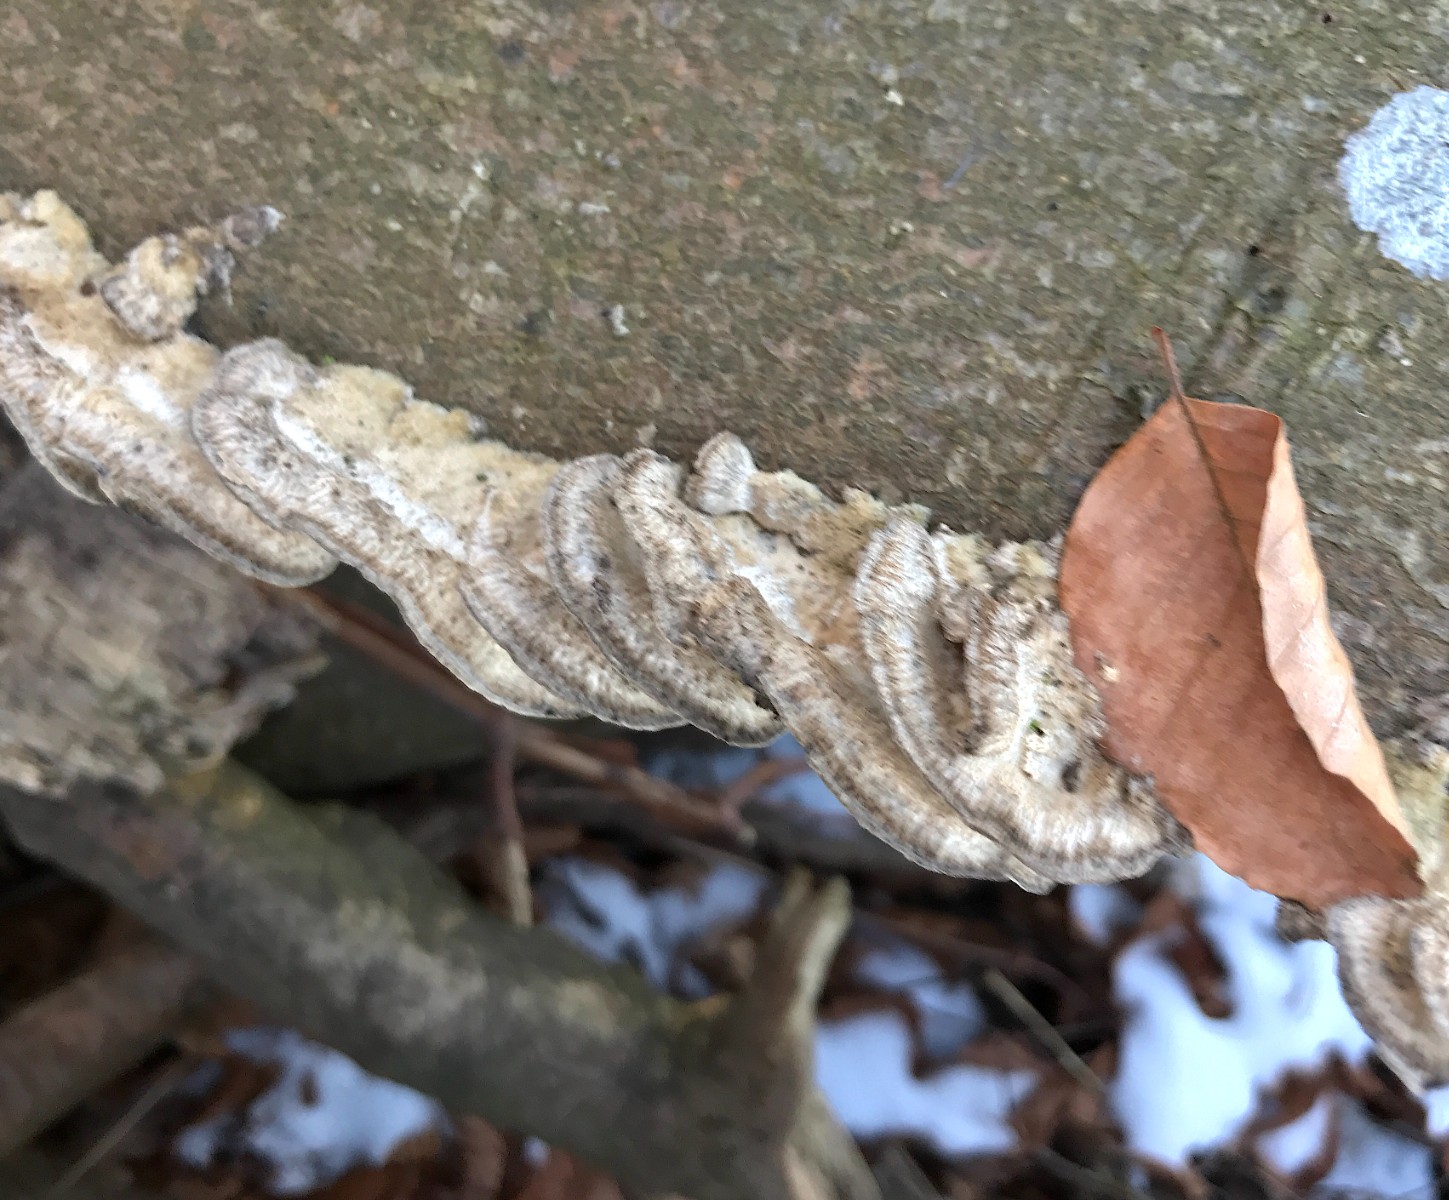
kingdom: Fungi
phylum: Basidiomycota
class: Agaricomycetes
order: Polyporales
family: Phanerochaetaceae
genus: Bjerkandera
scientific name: Bjerkandera adusta
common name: sveden sodporesvamp
